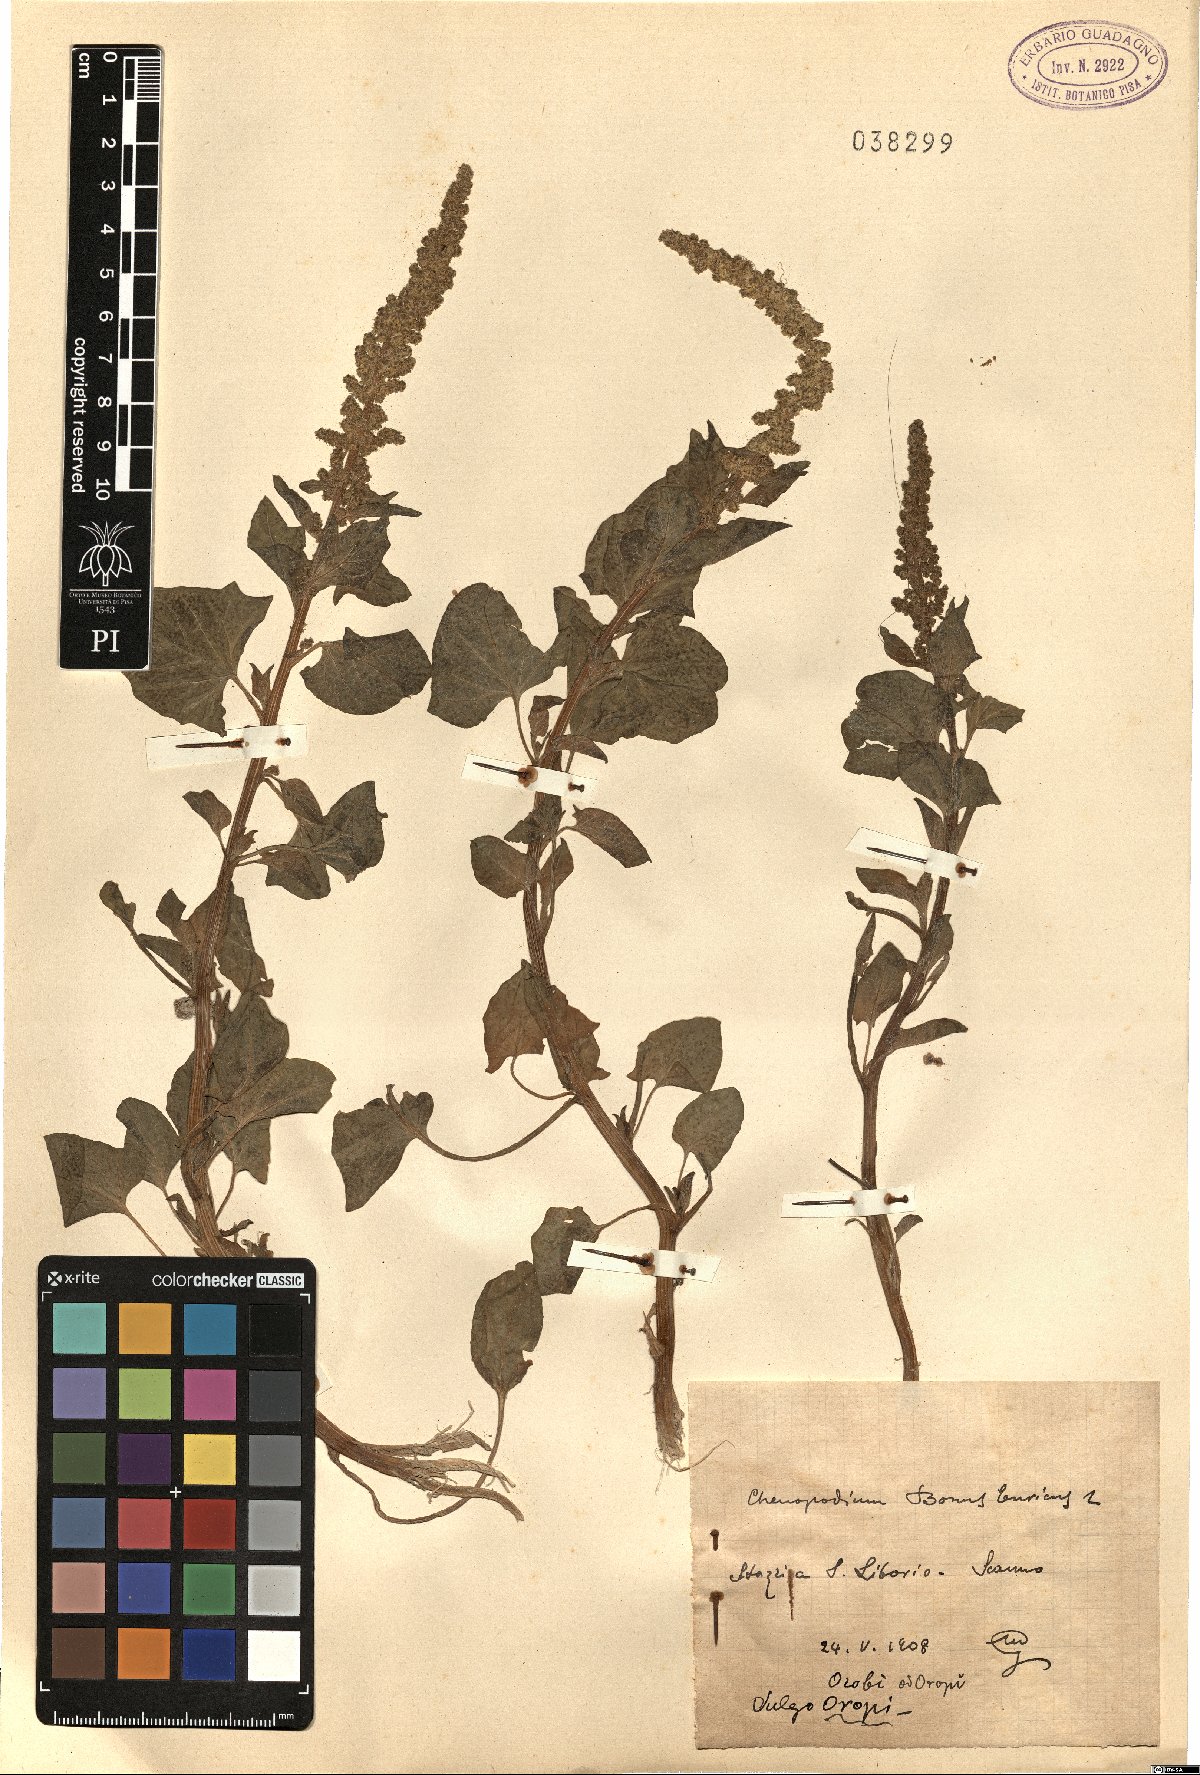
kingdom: Plantae
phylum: Tracheophyta
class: Magnoliopsida
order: Caryophyllales
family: Amaranthaceae
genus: Blitum
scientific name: Blitum bonus-henricus
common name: Good king henry
